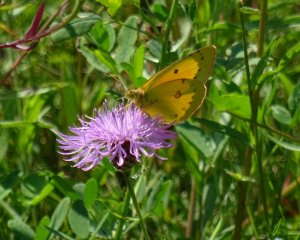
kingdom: Animalia
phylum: Arthropoda
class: Insecta
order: Lepidoptera
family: Pieridae
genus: Colias
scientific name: Colias eurytheme
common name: Orange Sulphur
